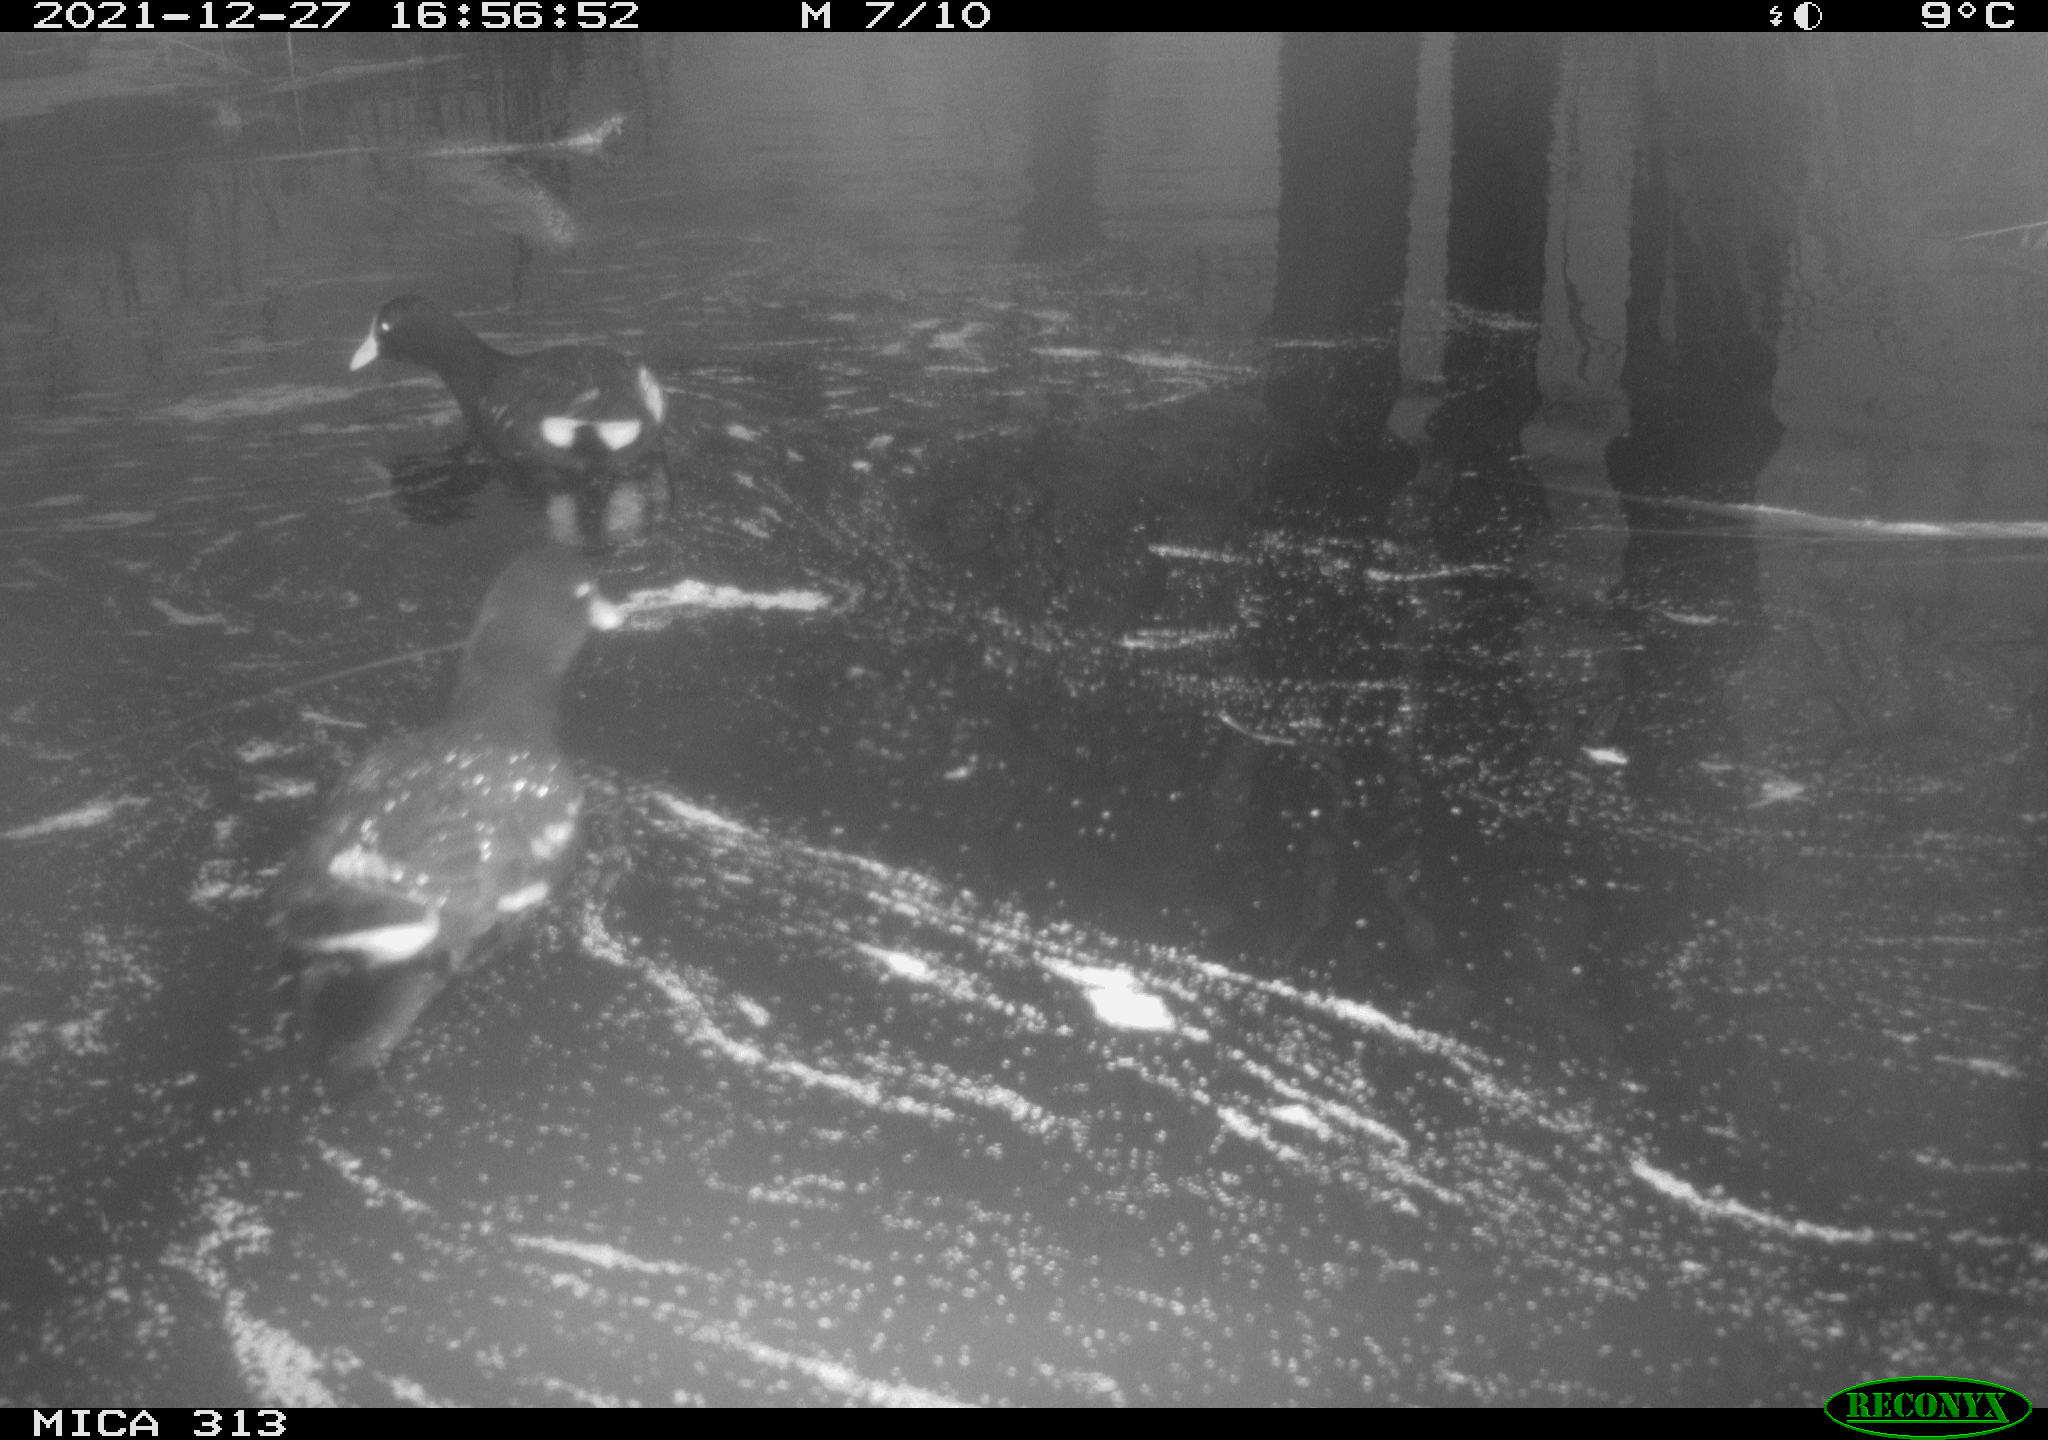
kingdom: Animalia
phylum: Chordata
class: Aves
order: Gruiformes
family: Rallidae
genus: Gallinula
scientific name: Gallinula chloropus
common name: Common moorhen
